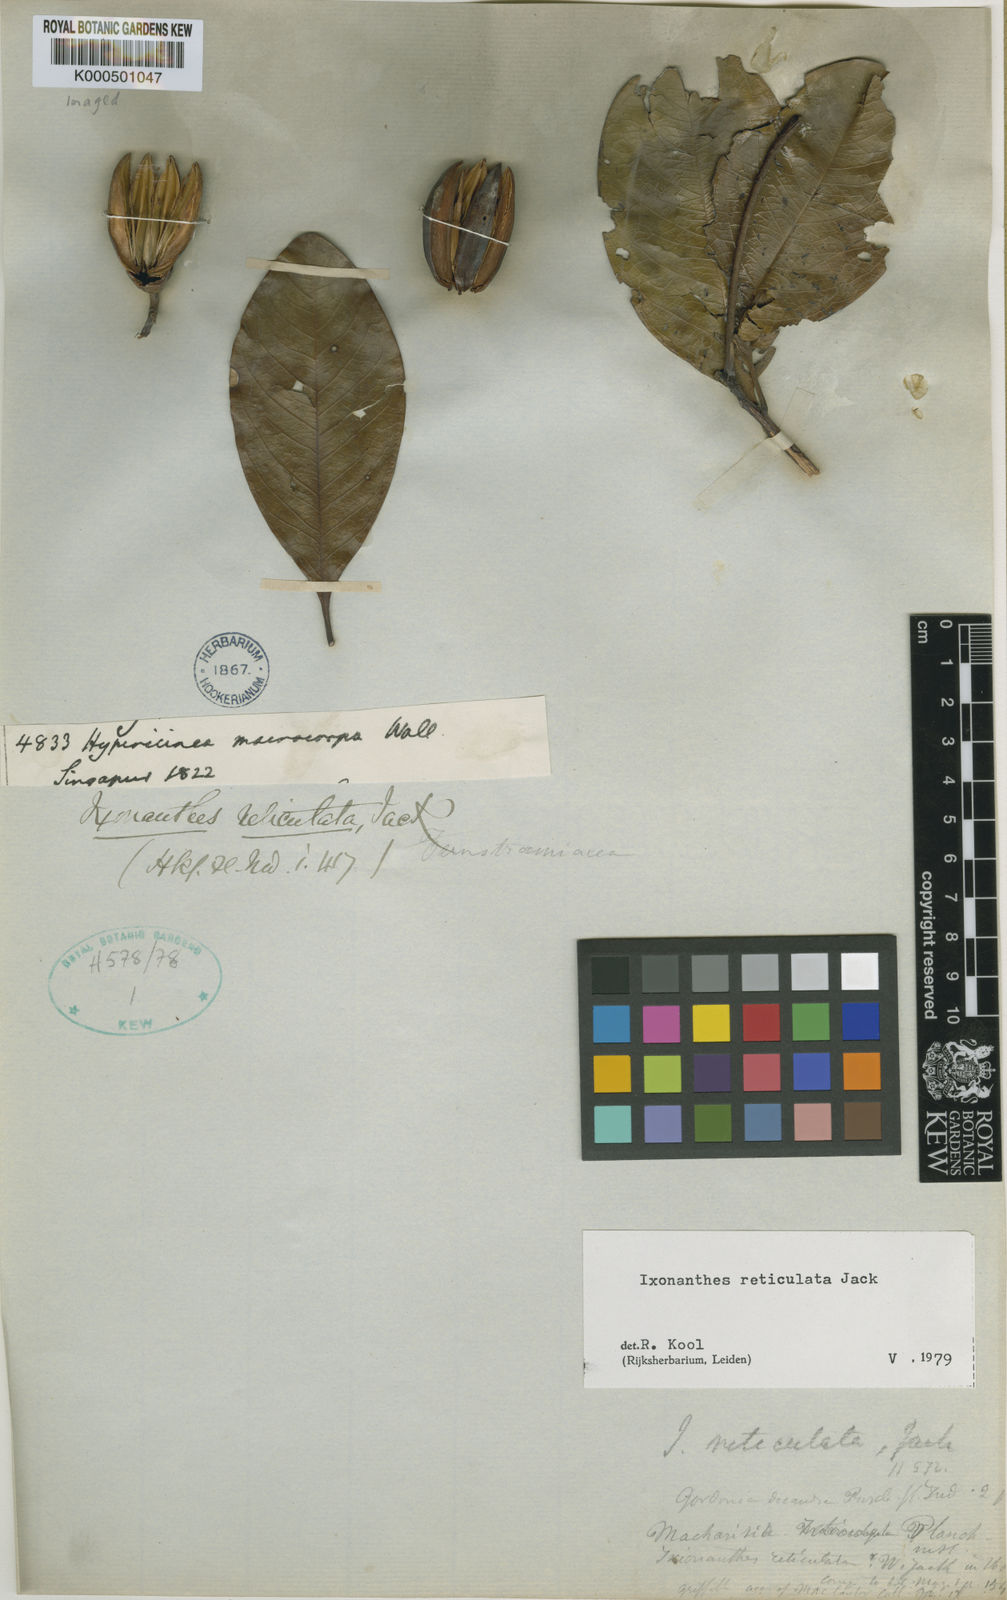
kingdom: Plantae
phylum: Tracheophyta
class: Magnoliopsida
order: Malpighiales
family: Ixonanthaceae
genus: Ixonanthes
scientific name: Ixonanthes reticulata
